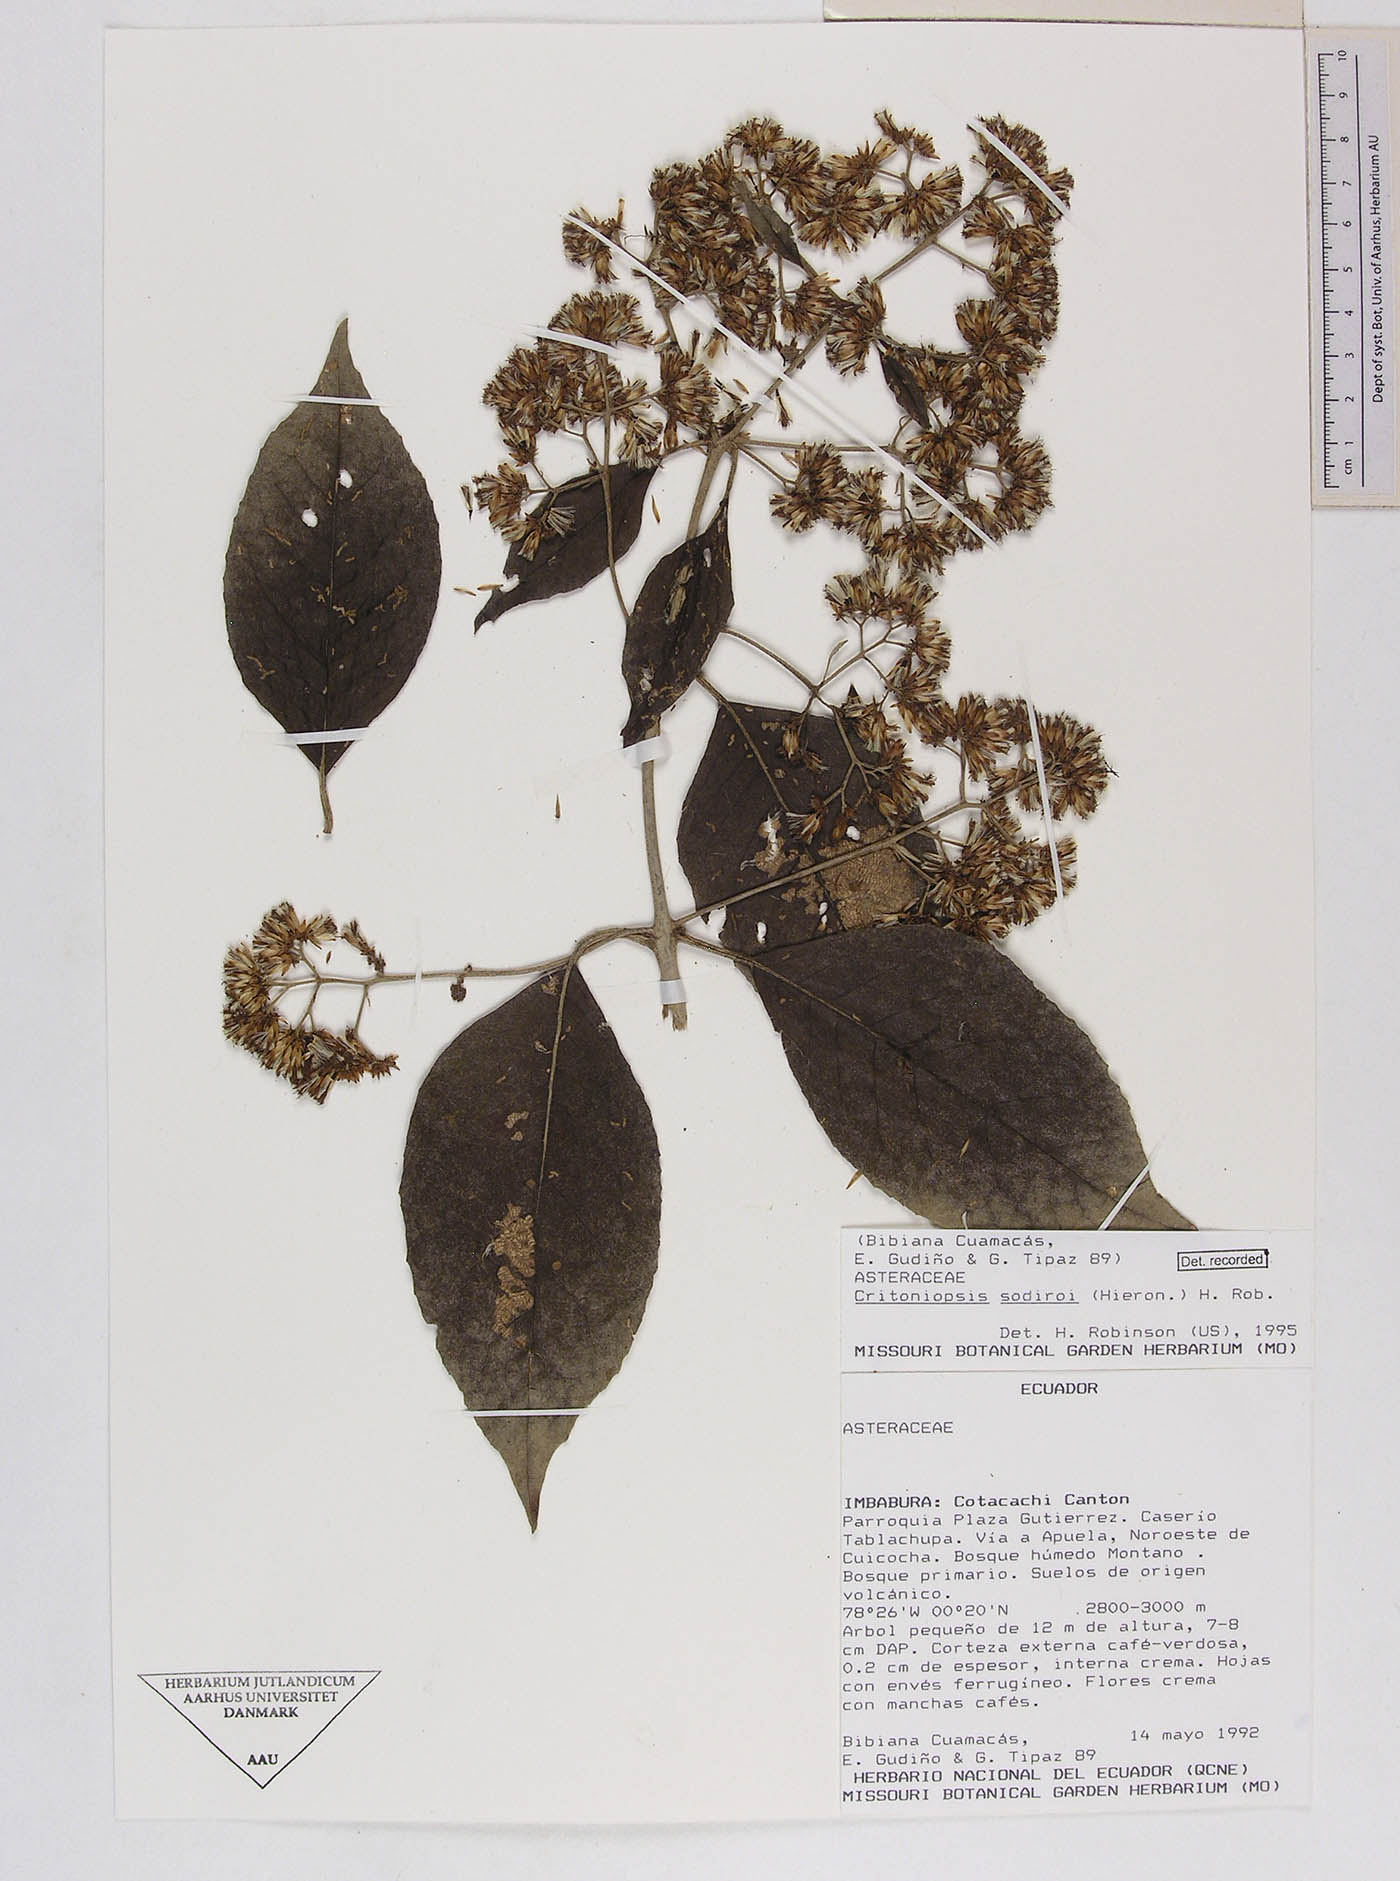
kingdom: Plantae
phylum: Tracheophyta
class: Magnoliopsida
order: Asterales
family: Asteraceae
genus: Critoniopsis
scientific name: Critoniopsis sodiroi
